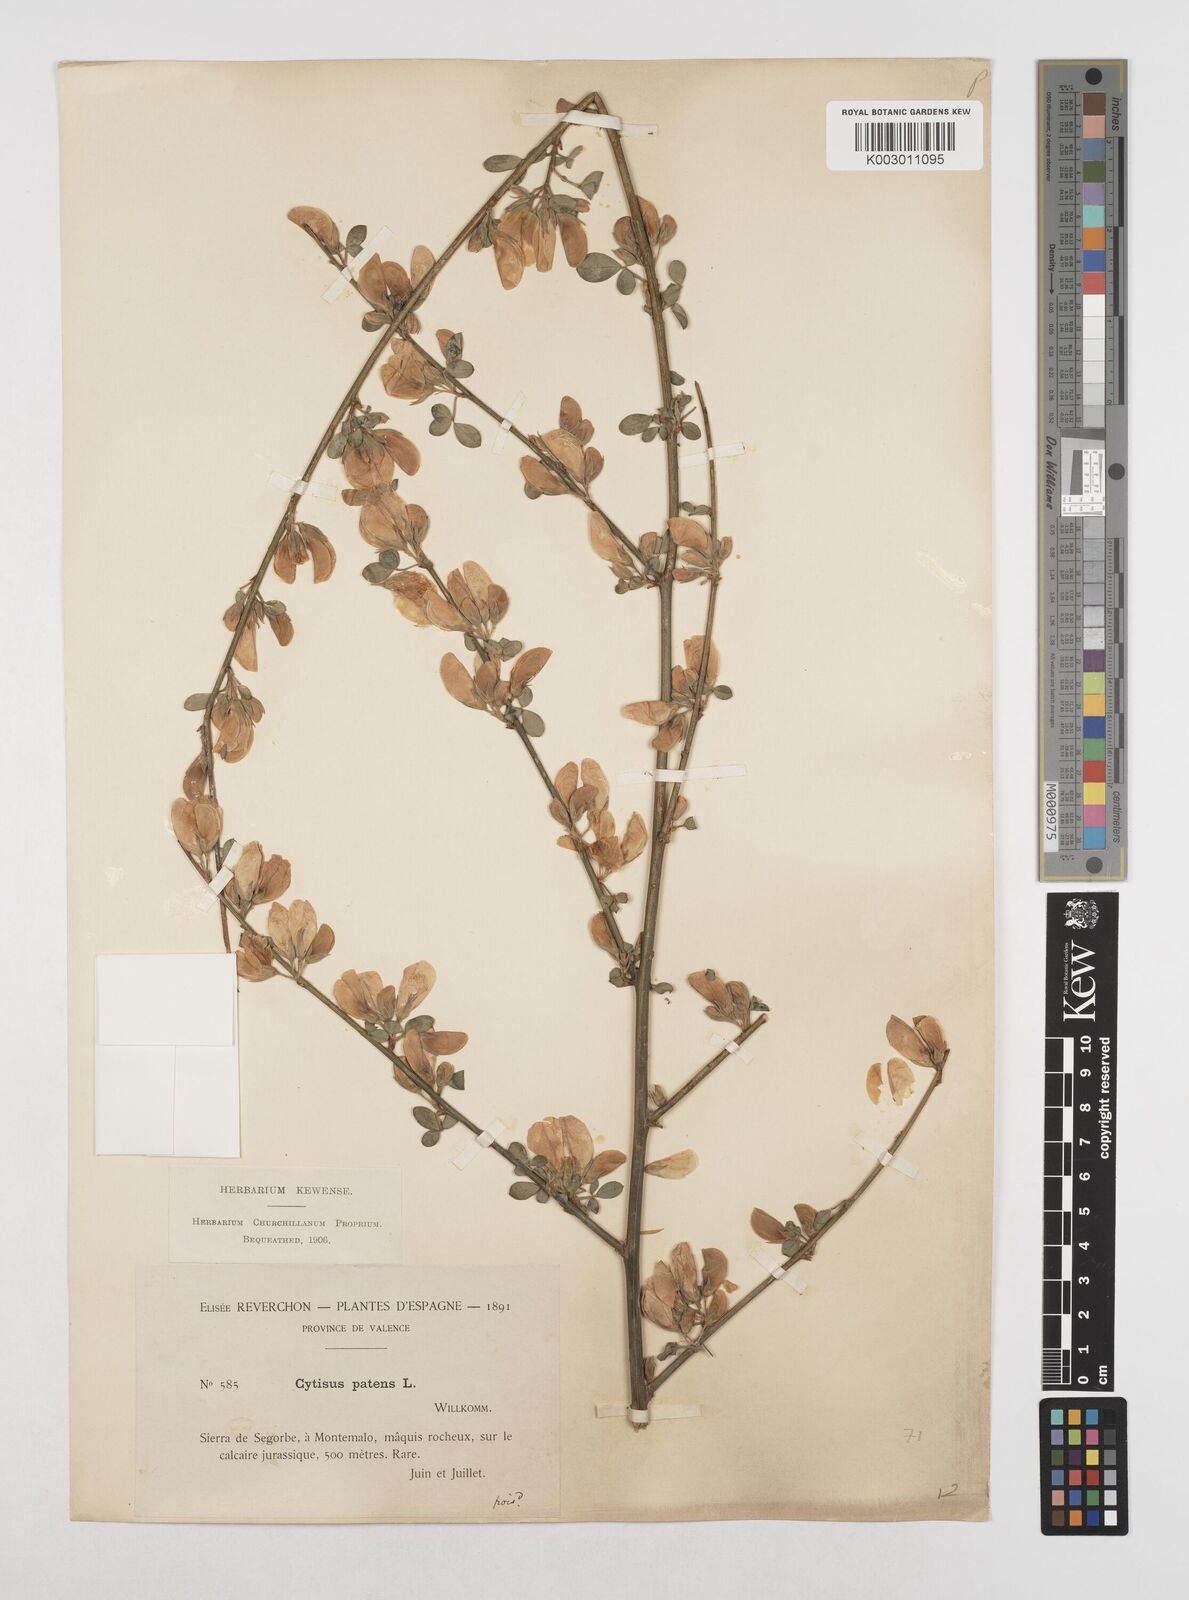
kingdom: Plantae
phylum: Tracheophyta
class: Magnoliopsida
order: Fabales
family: Fabaceae
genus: Cytisus
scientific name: Cytisus scoparius
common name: Scotch broom
